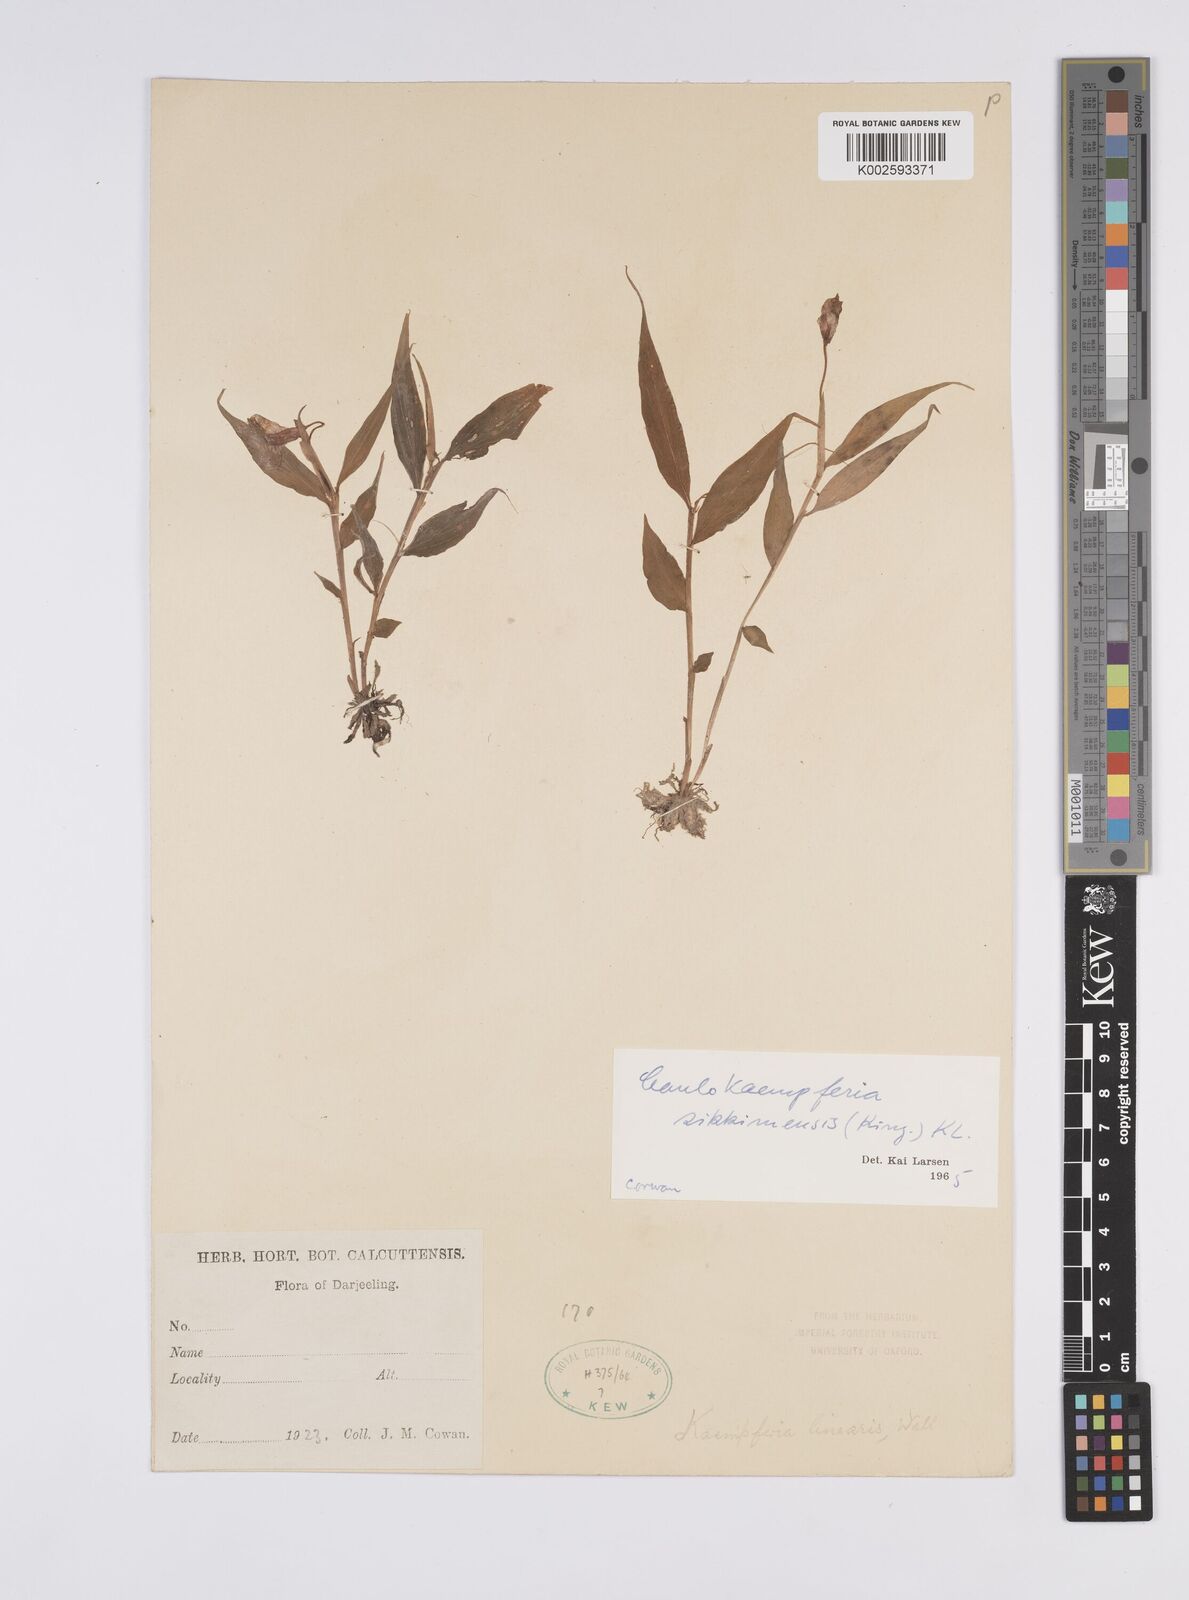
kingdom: Plantae
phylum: Tracheophyta
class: Liliopsida
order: Zingiberales
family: Zingiberaceae
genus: Caulokaempferia
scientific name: Caulokaempferia sikkimensis
